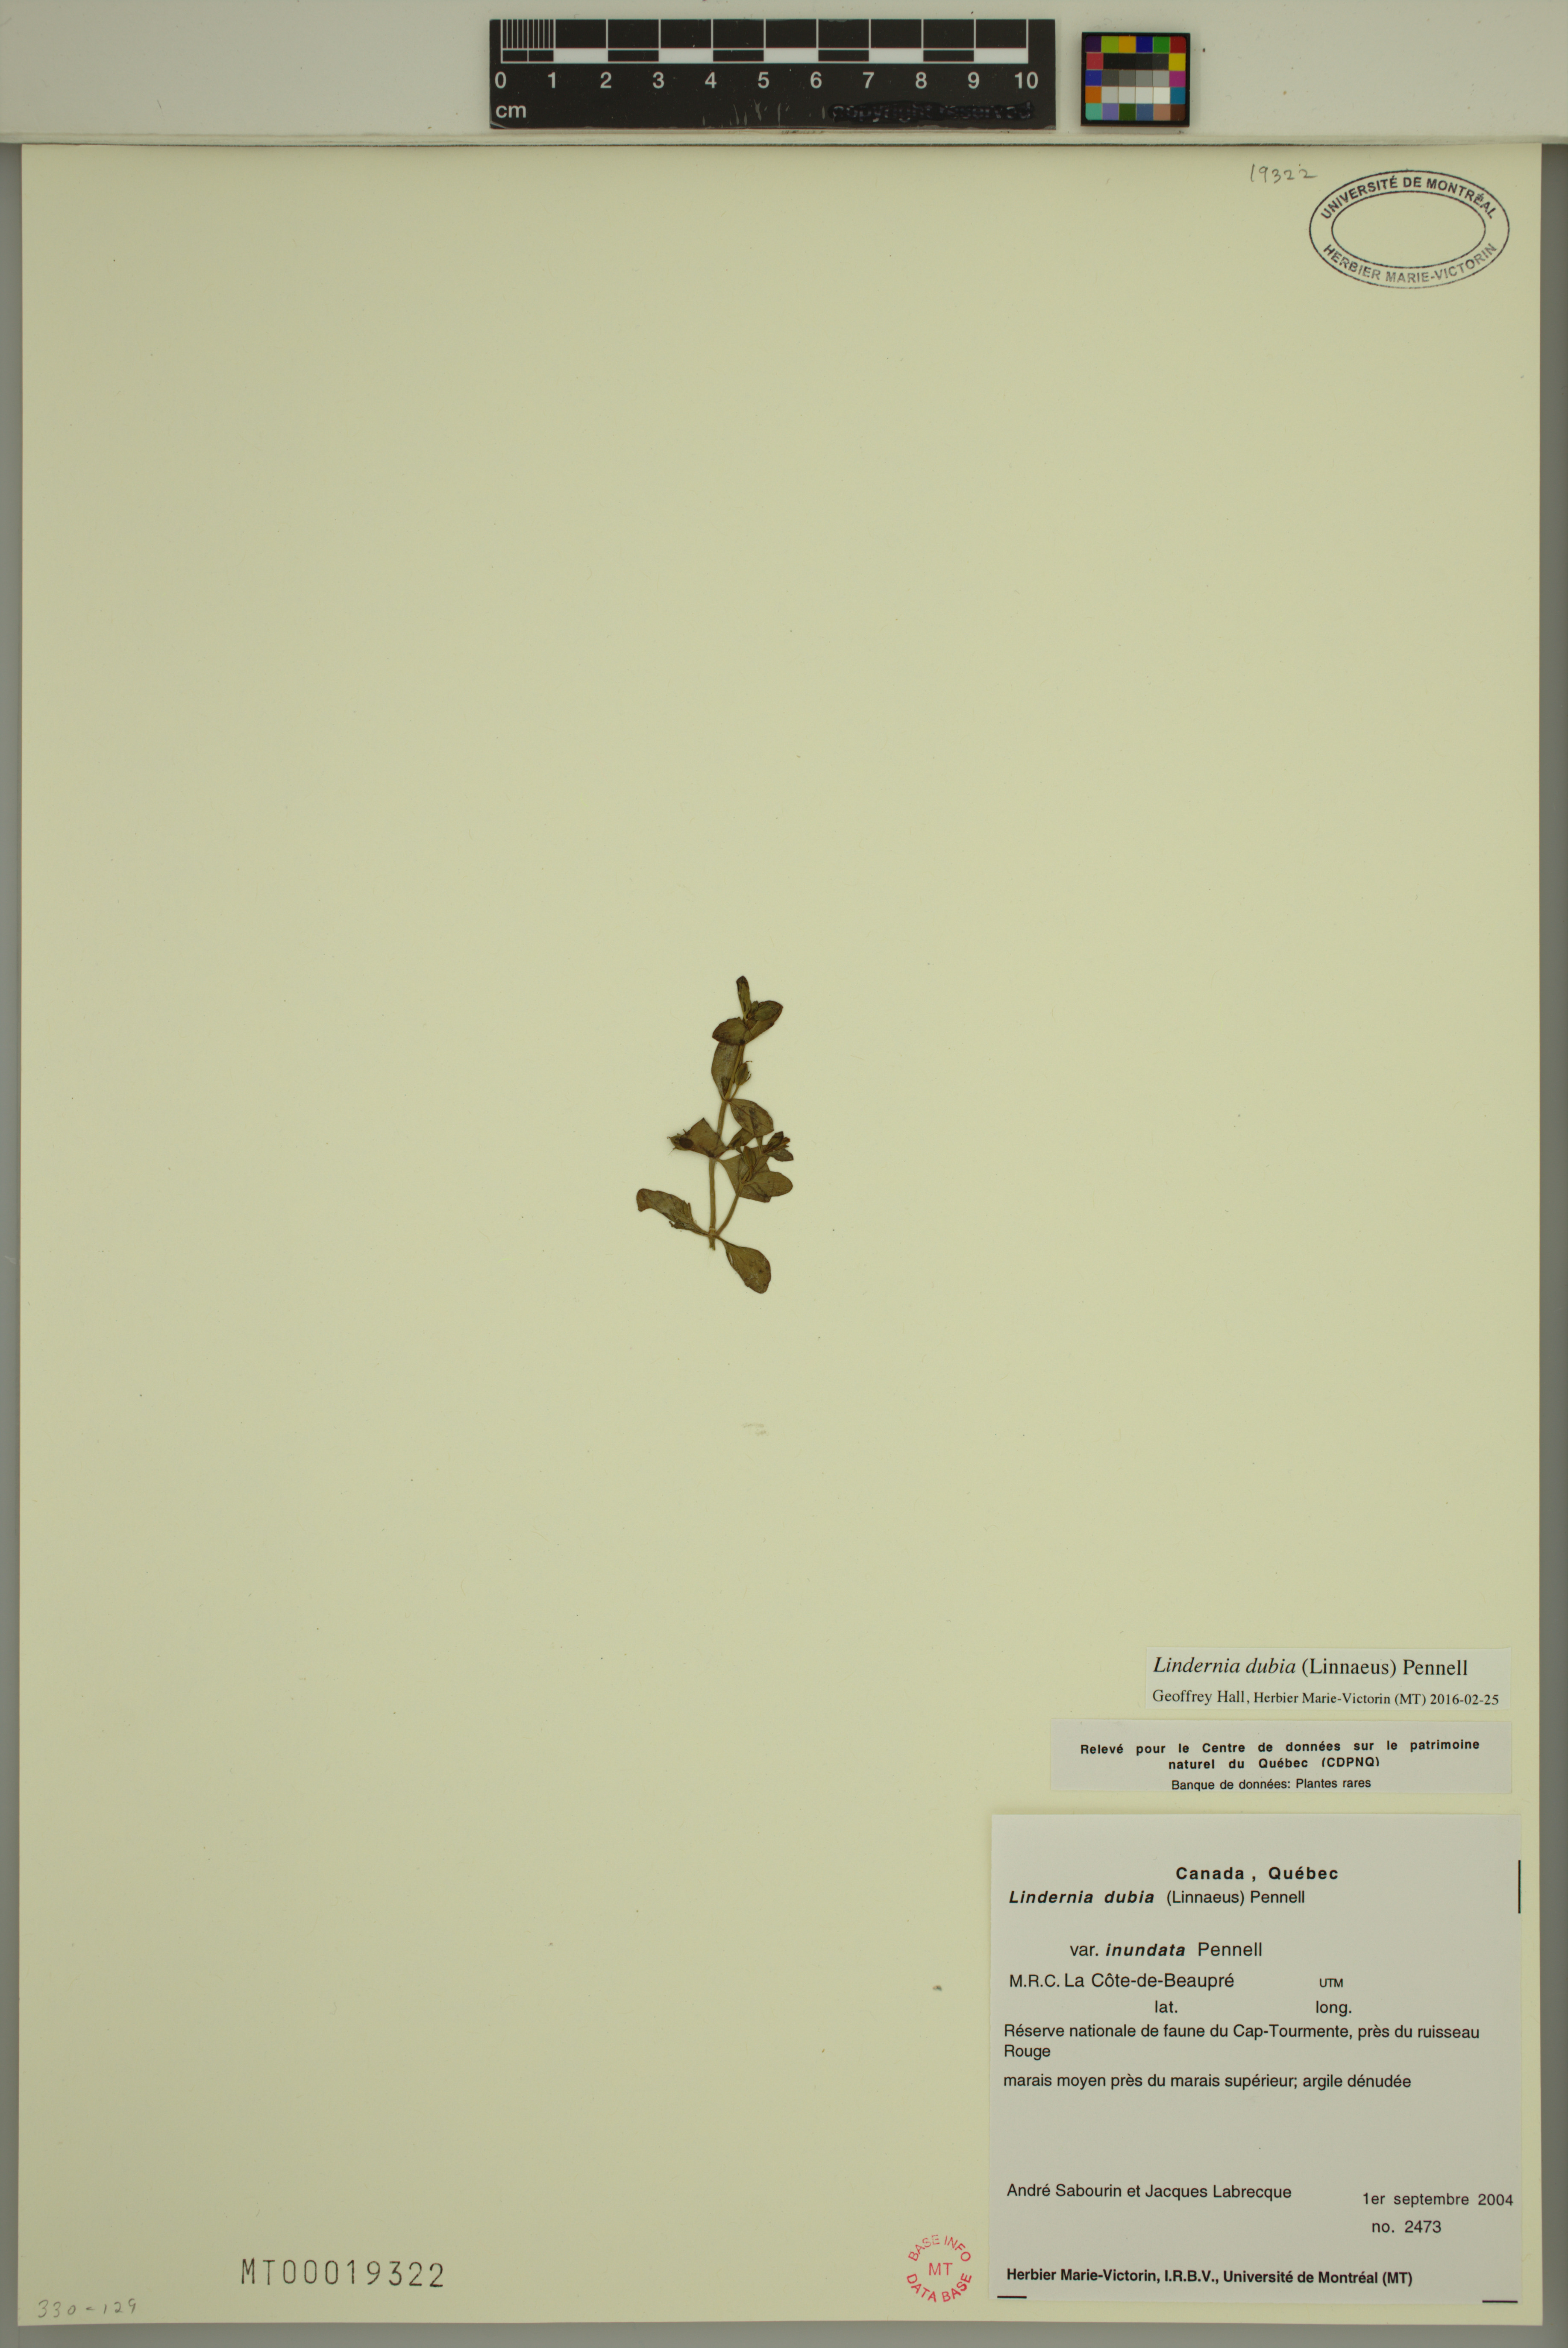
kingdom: Plantae
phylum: Tracheophyta
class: Magnoliopsida
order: Lamiales
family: Linderniaceae
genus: Lindernia
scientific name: Lindernia dubia
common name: Annual false pimpernel
